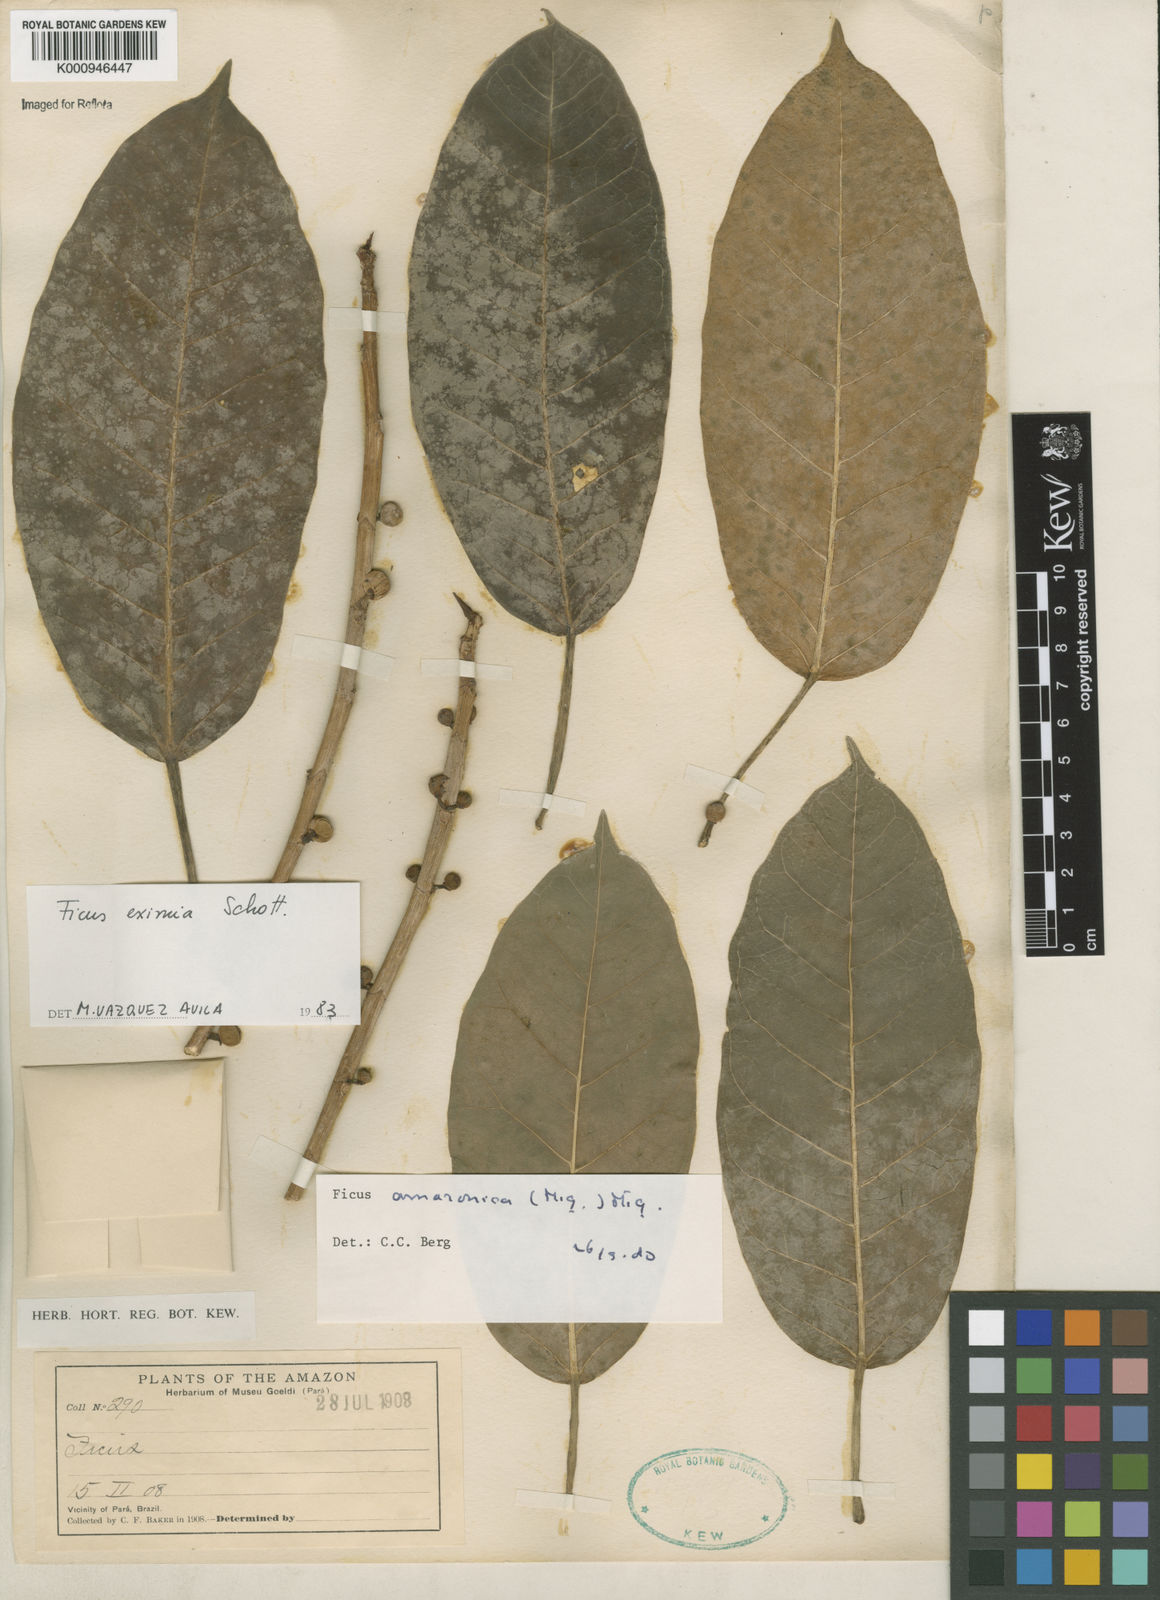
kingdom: Plantae
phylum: Tracheophyta
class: Magnoliopsida
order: Rosales
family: Moraceae
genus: Ficus
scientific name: Ficus amazonica
